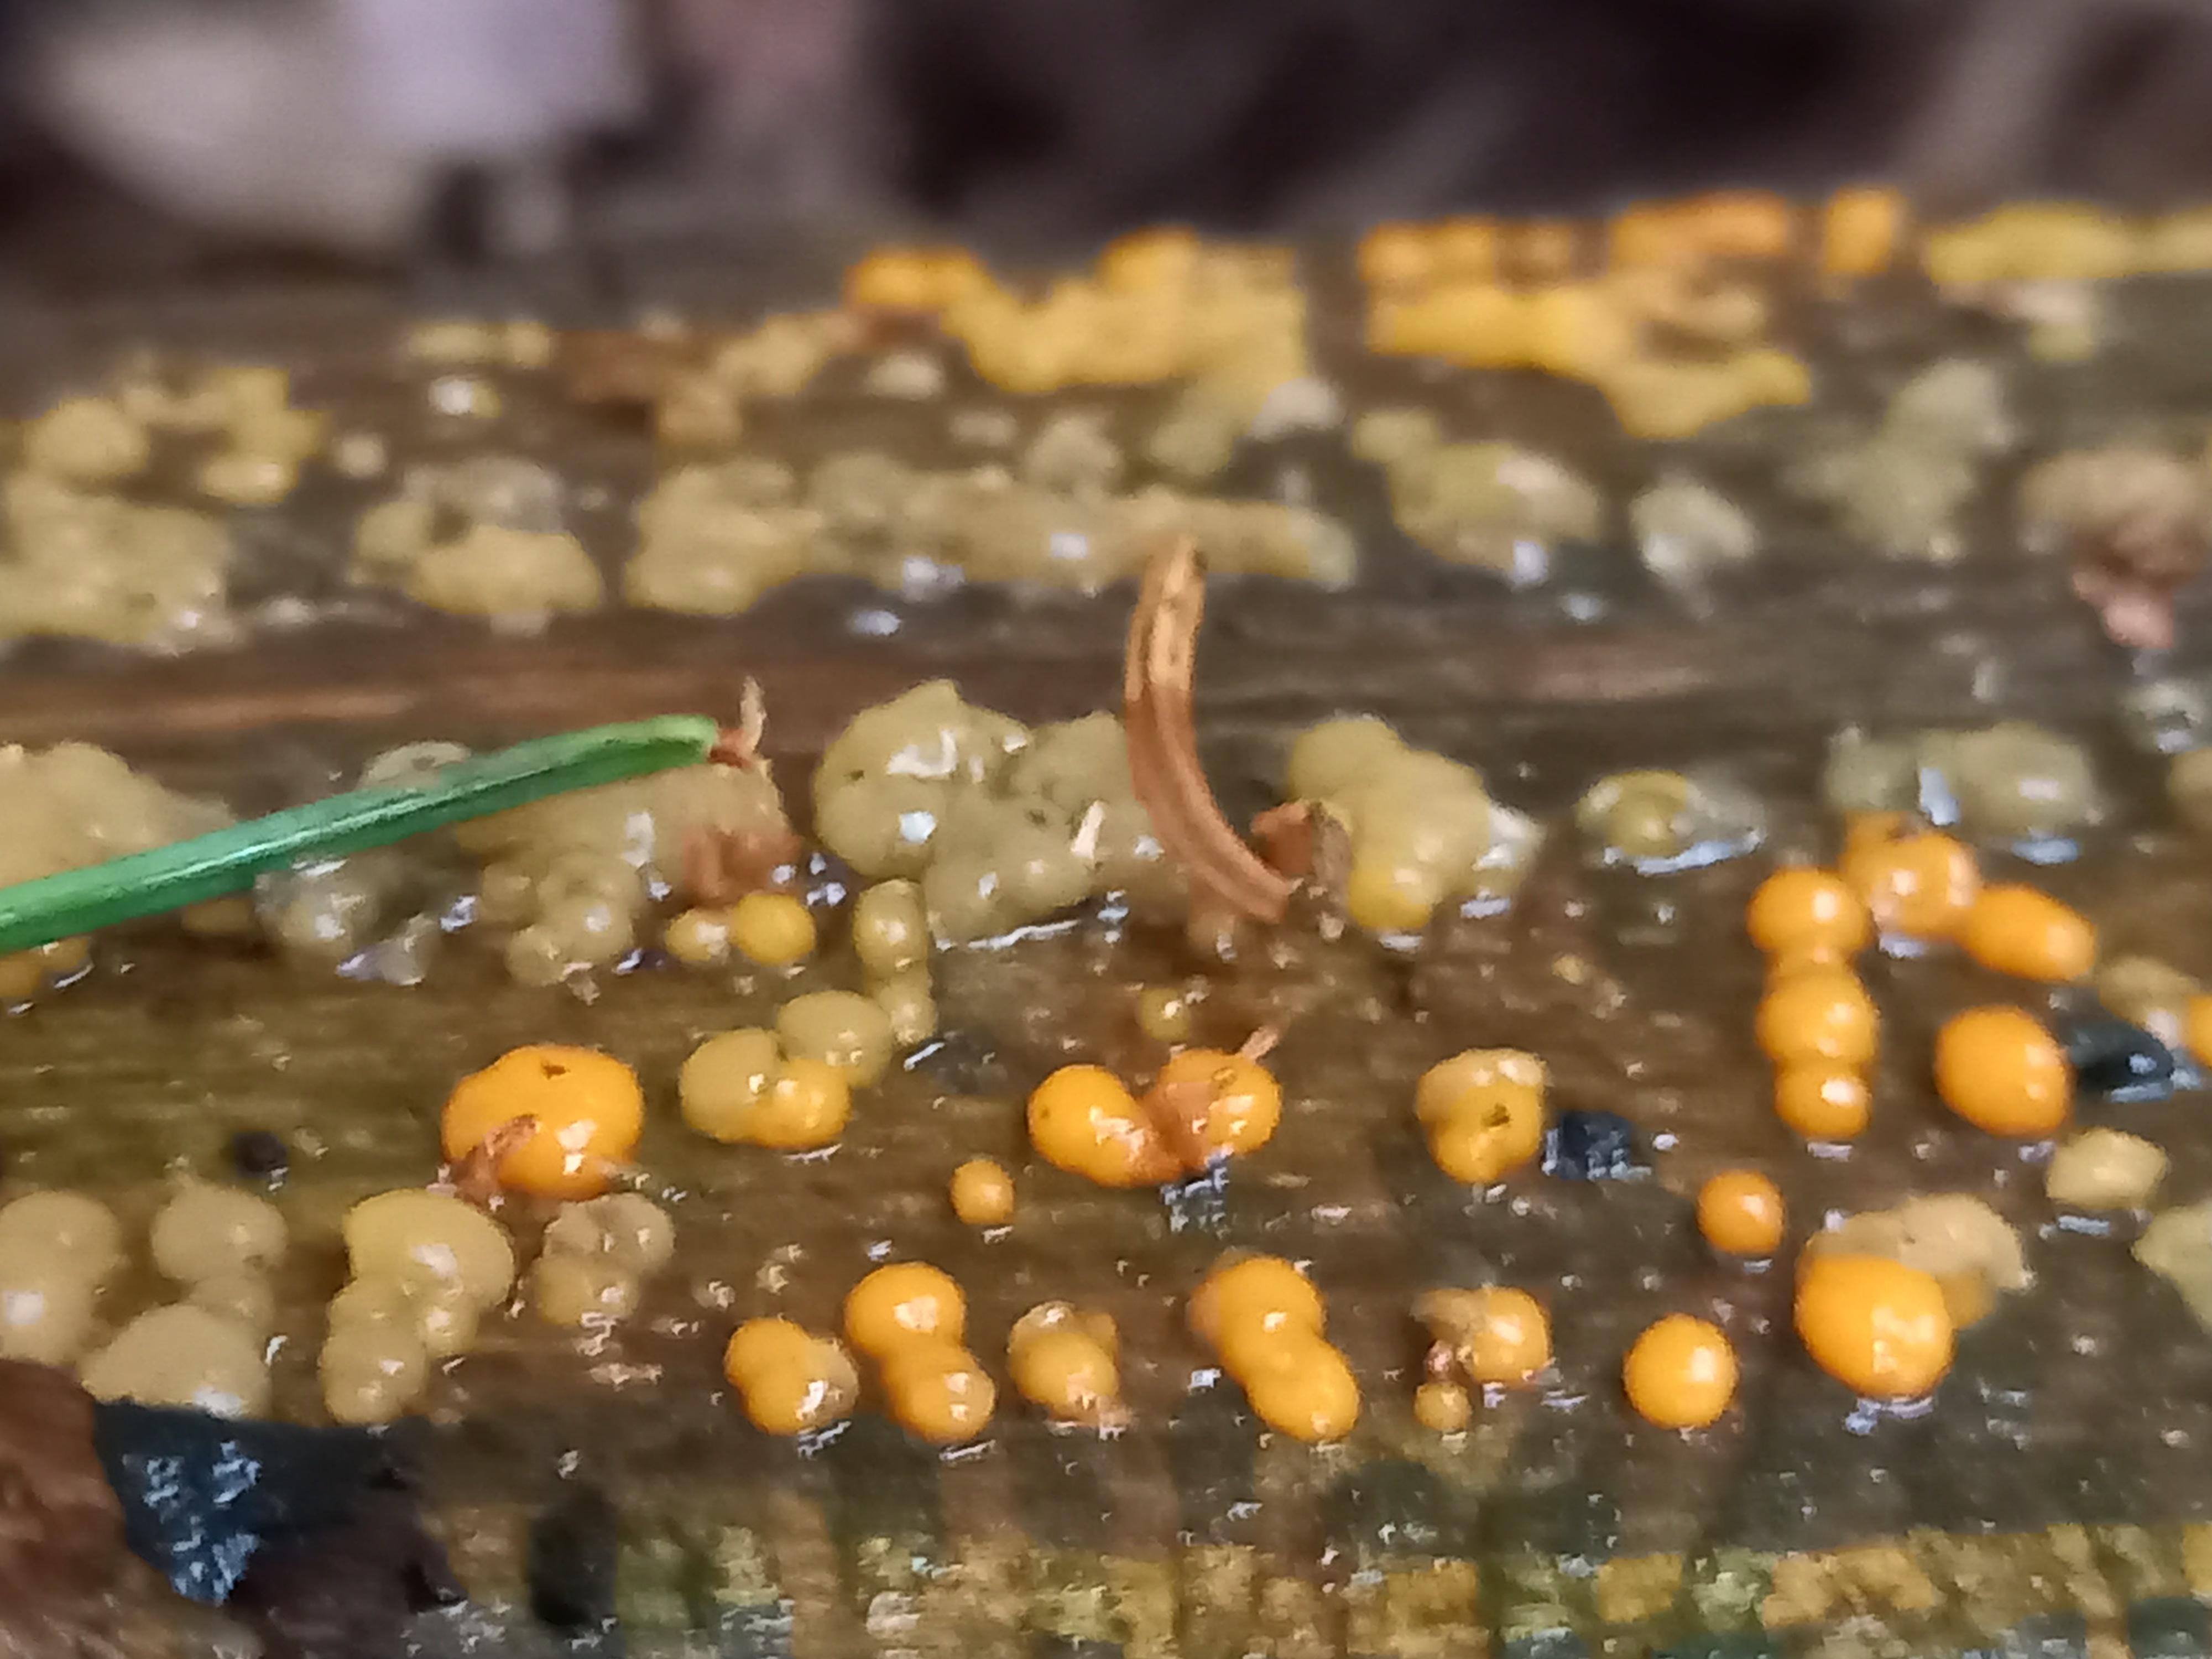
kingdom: Fungi
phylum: Basidiomycota
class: Dacrymycetes
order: Dacrymycetales
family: Dacrymycetaceae
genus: Dacrymyces
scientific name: Dacrymyces stillatus
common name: almindelig tåresvamp
